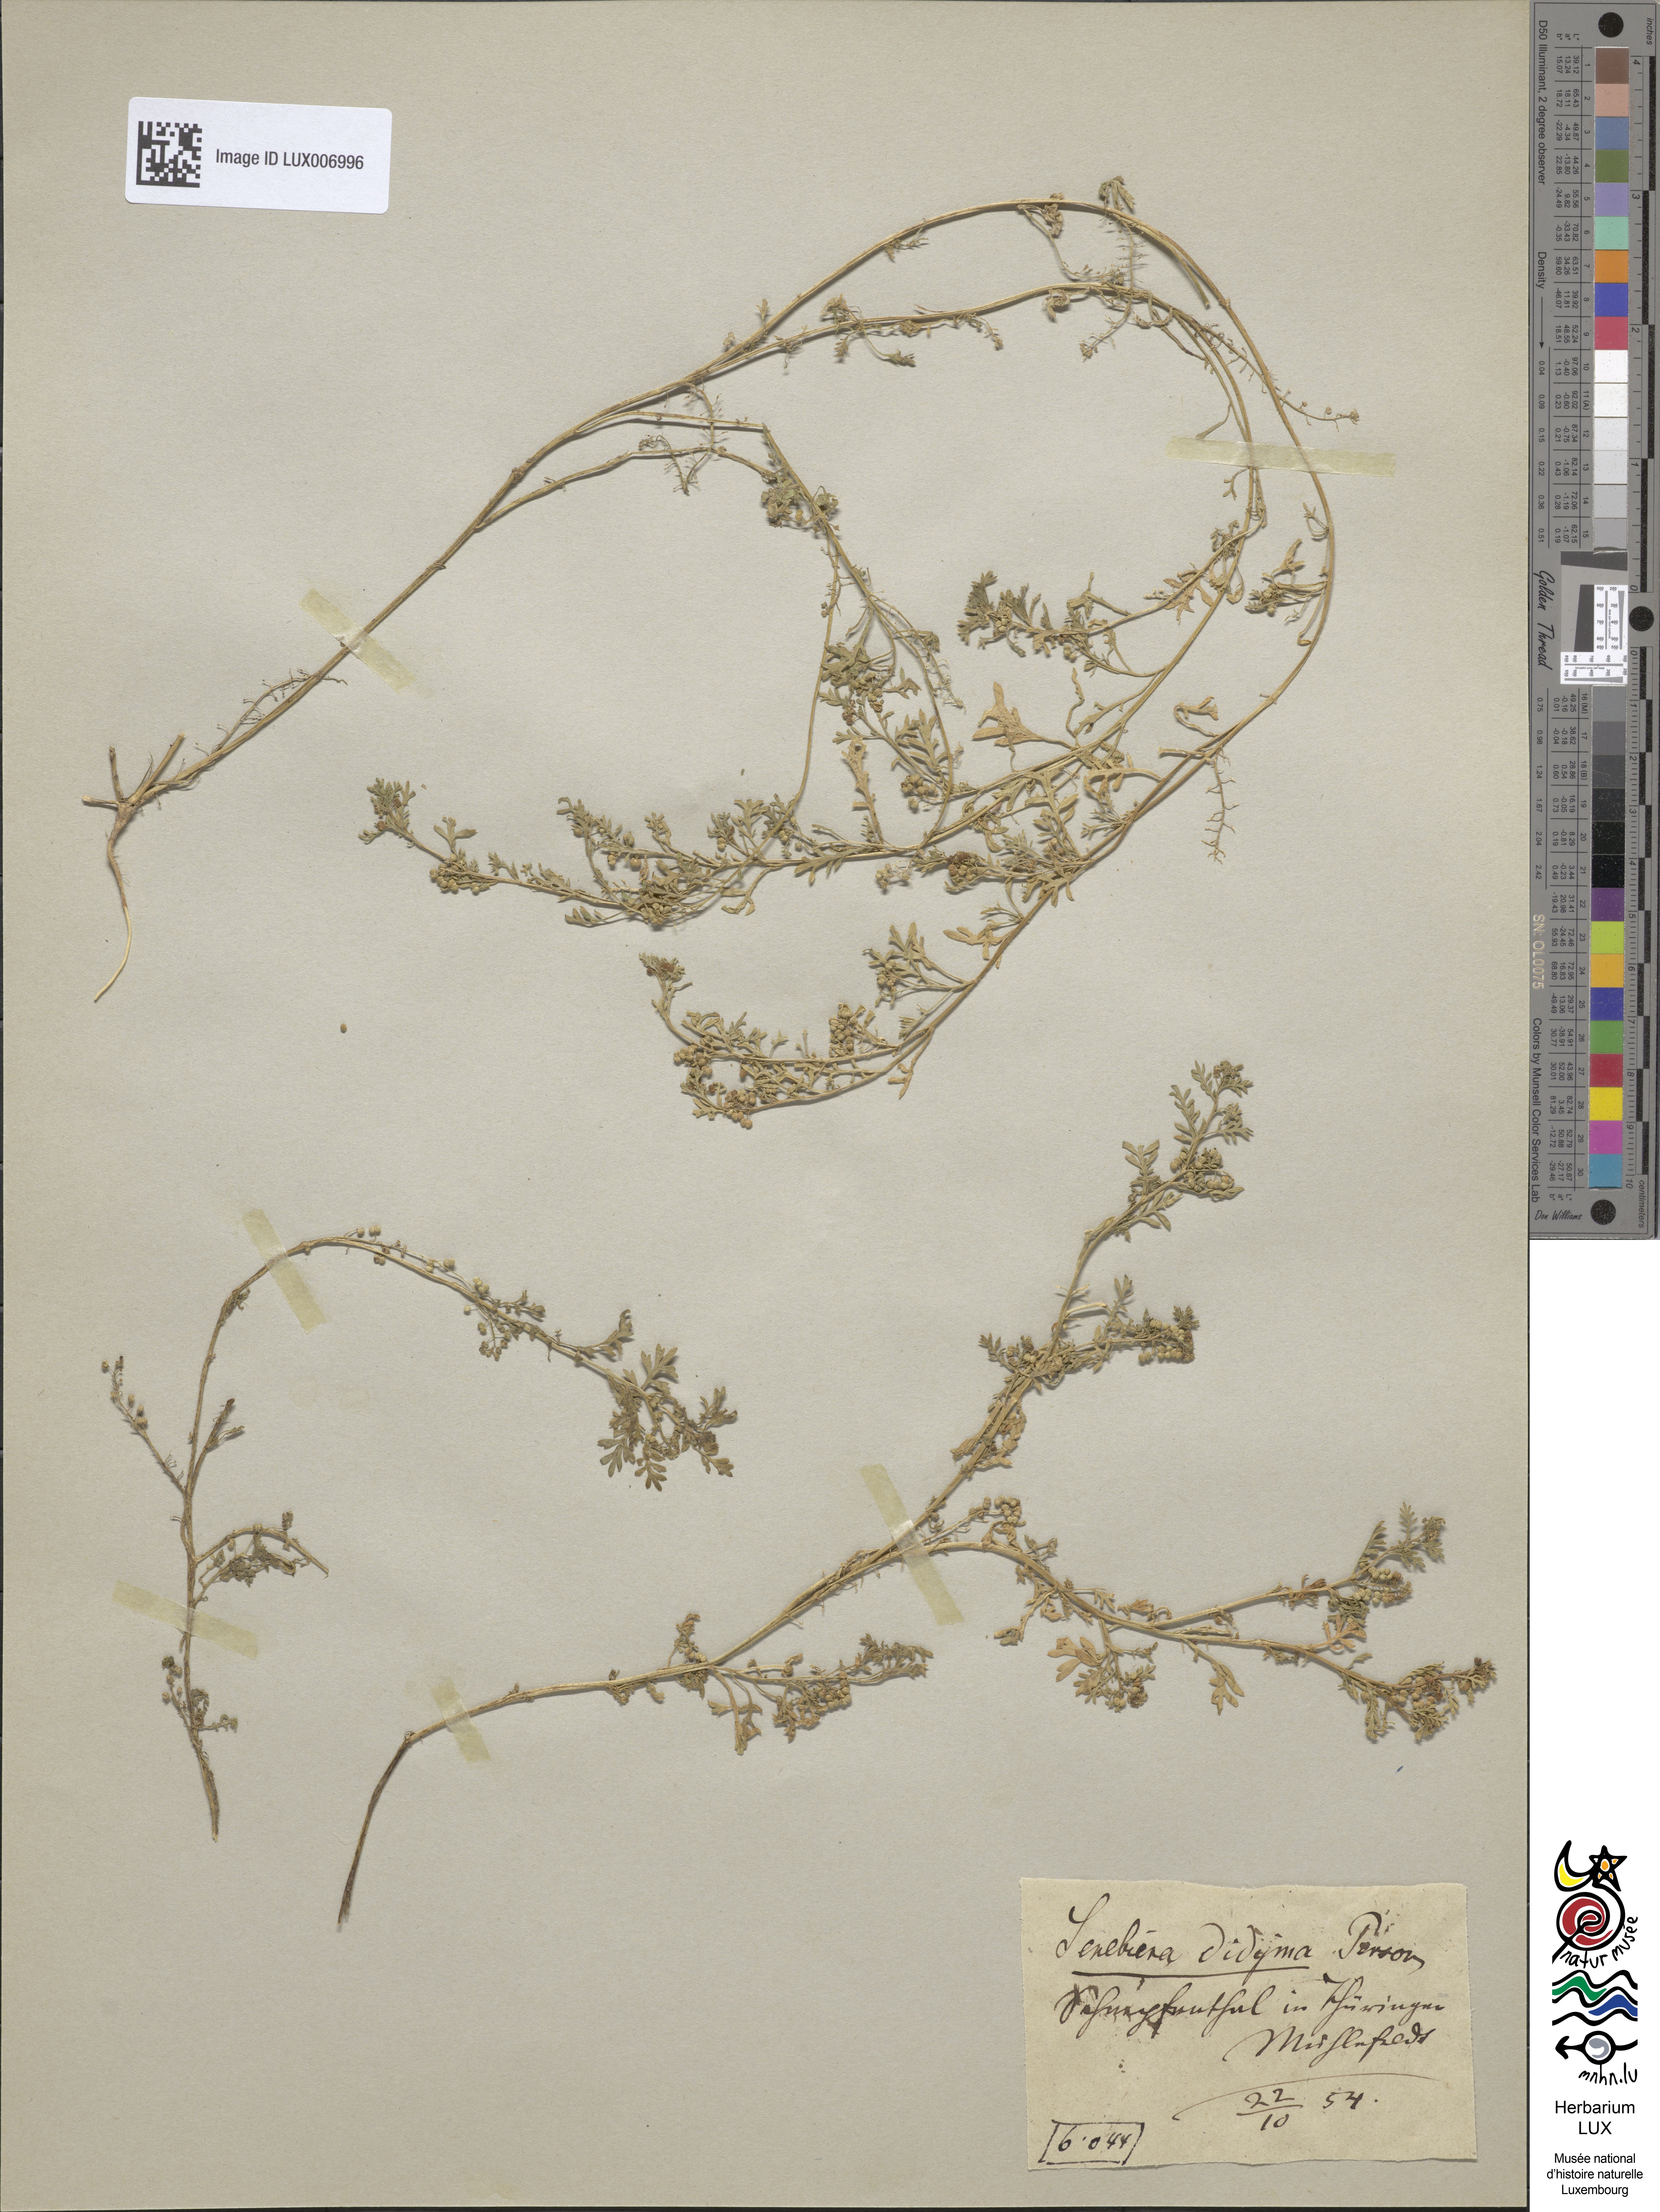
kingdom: Plantae
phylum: Tracheophyta
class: Magnoliopsida
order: Brassicales
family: Brassicaceae
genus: Lepidium
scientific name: Lepidium didymum
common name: Lesser swinecress
